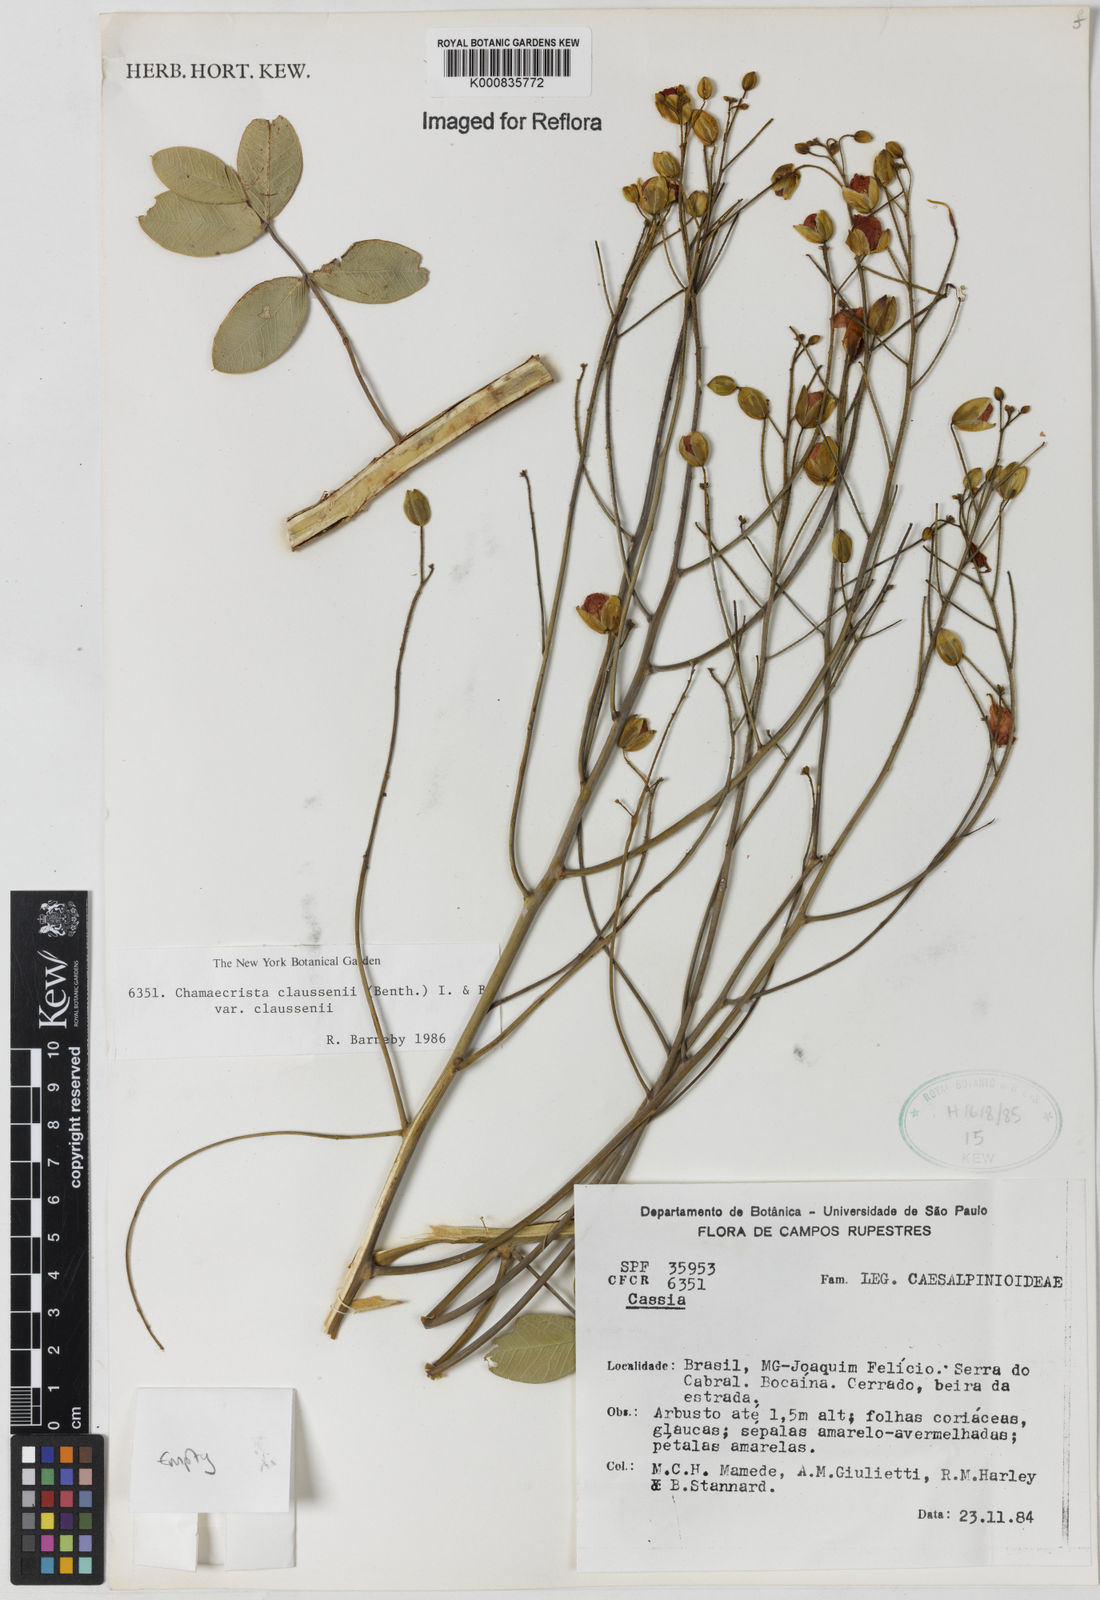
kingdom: Plantae
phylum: Tracheophyta
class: Magnoliopsida
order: Fabales
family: Fabaceae
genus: Chamaecrista
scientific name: Chamaecrista claussenii
